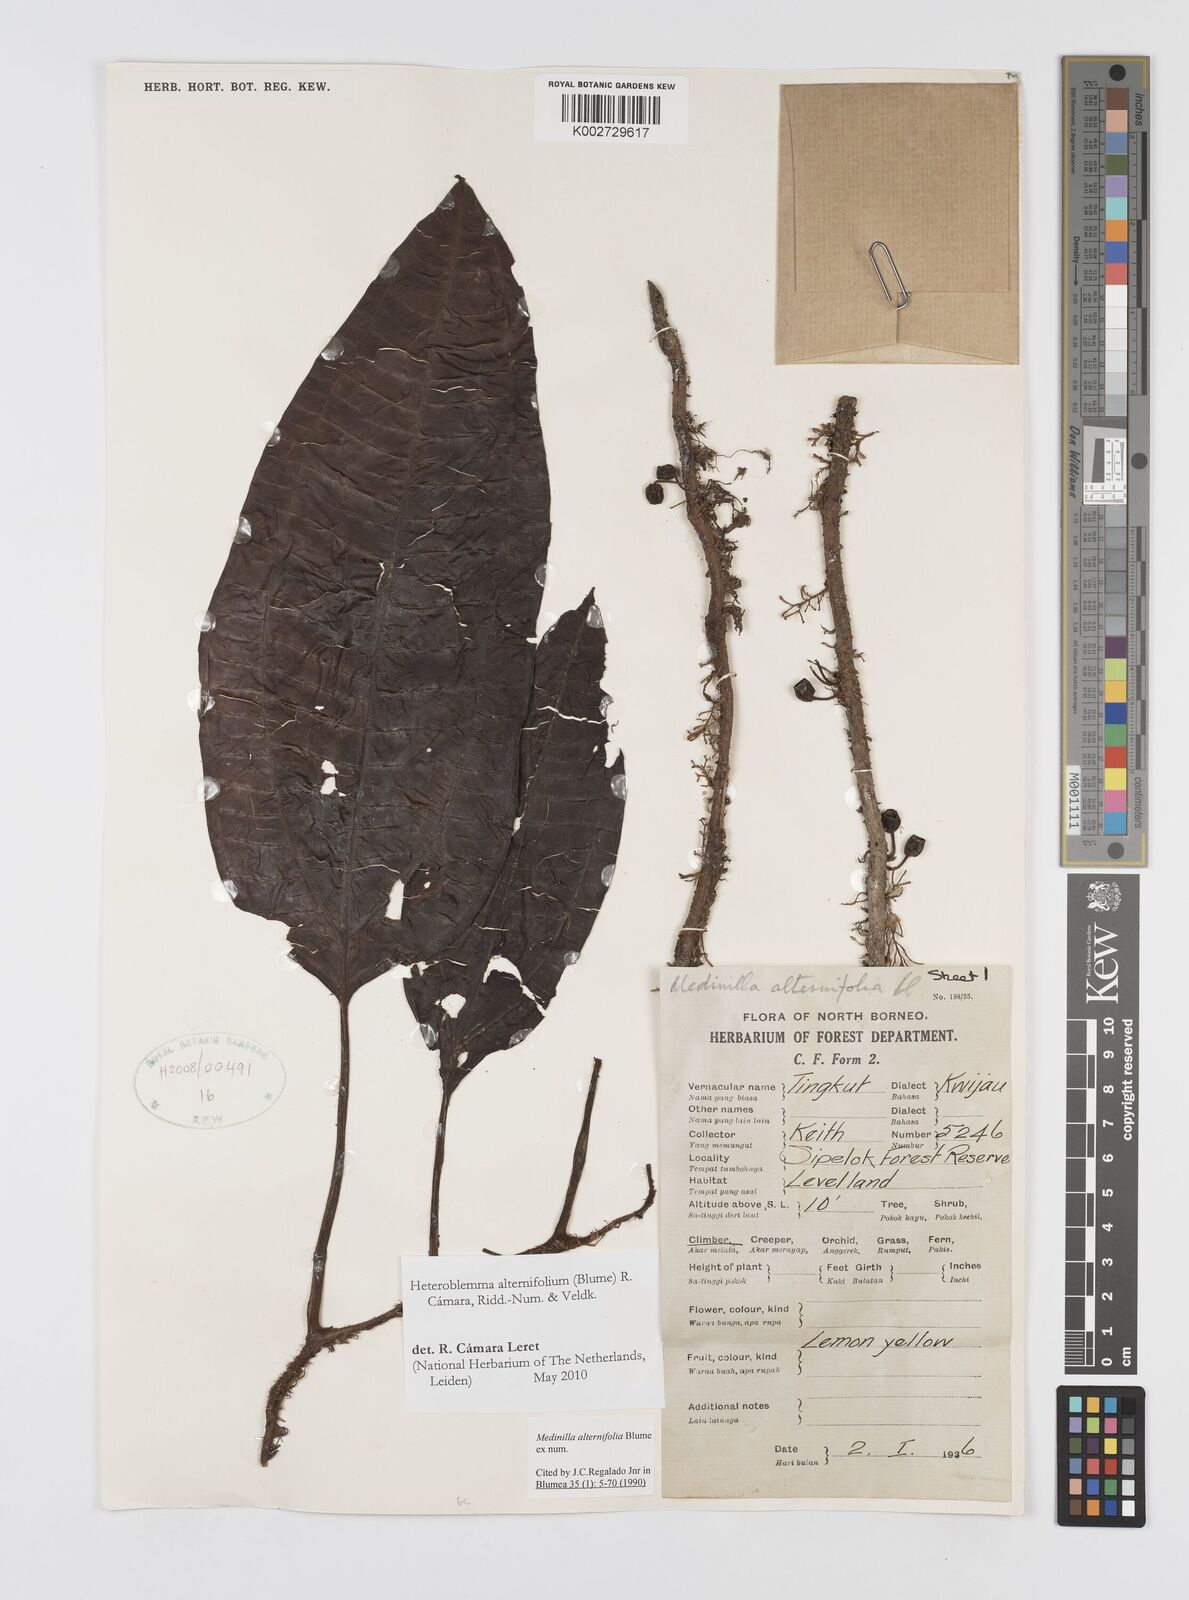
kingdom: Plantae
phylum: Tracheophyta
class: Magnoliopsida
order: Myrtales
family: Melastomataceae
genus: Heteroblemma
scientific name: Heteroblemma alternifolium
